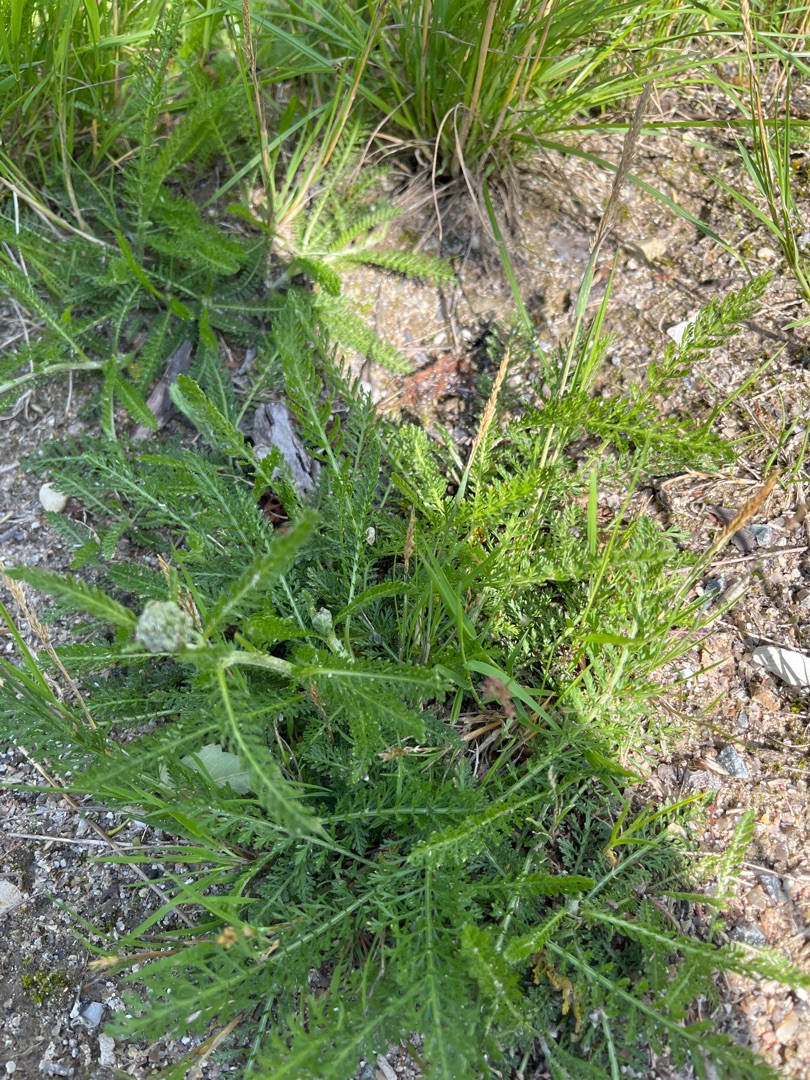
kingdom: Plantae
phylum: Tracheophyta
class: Magnoliopsida
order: Asterales
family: Asteraceae
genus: Achillea
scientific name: Achillea millefolium
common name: Almindelig røllike
